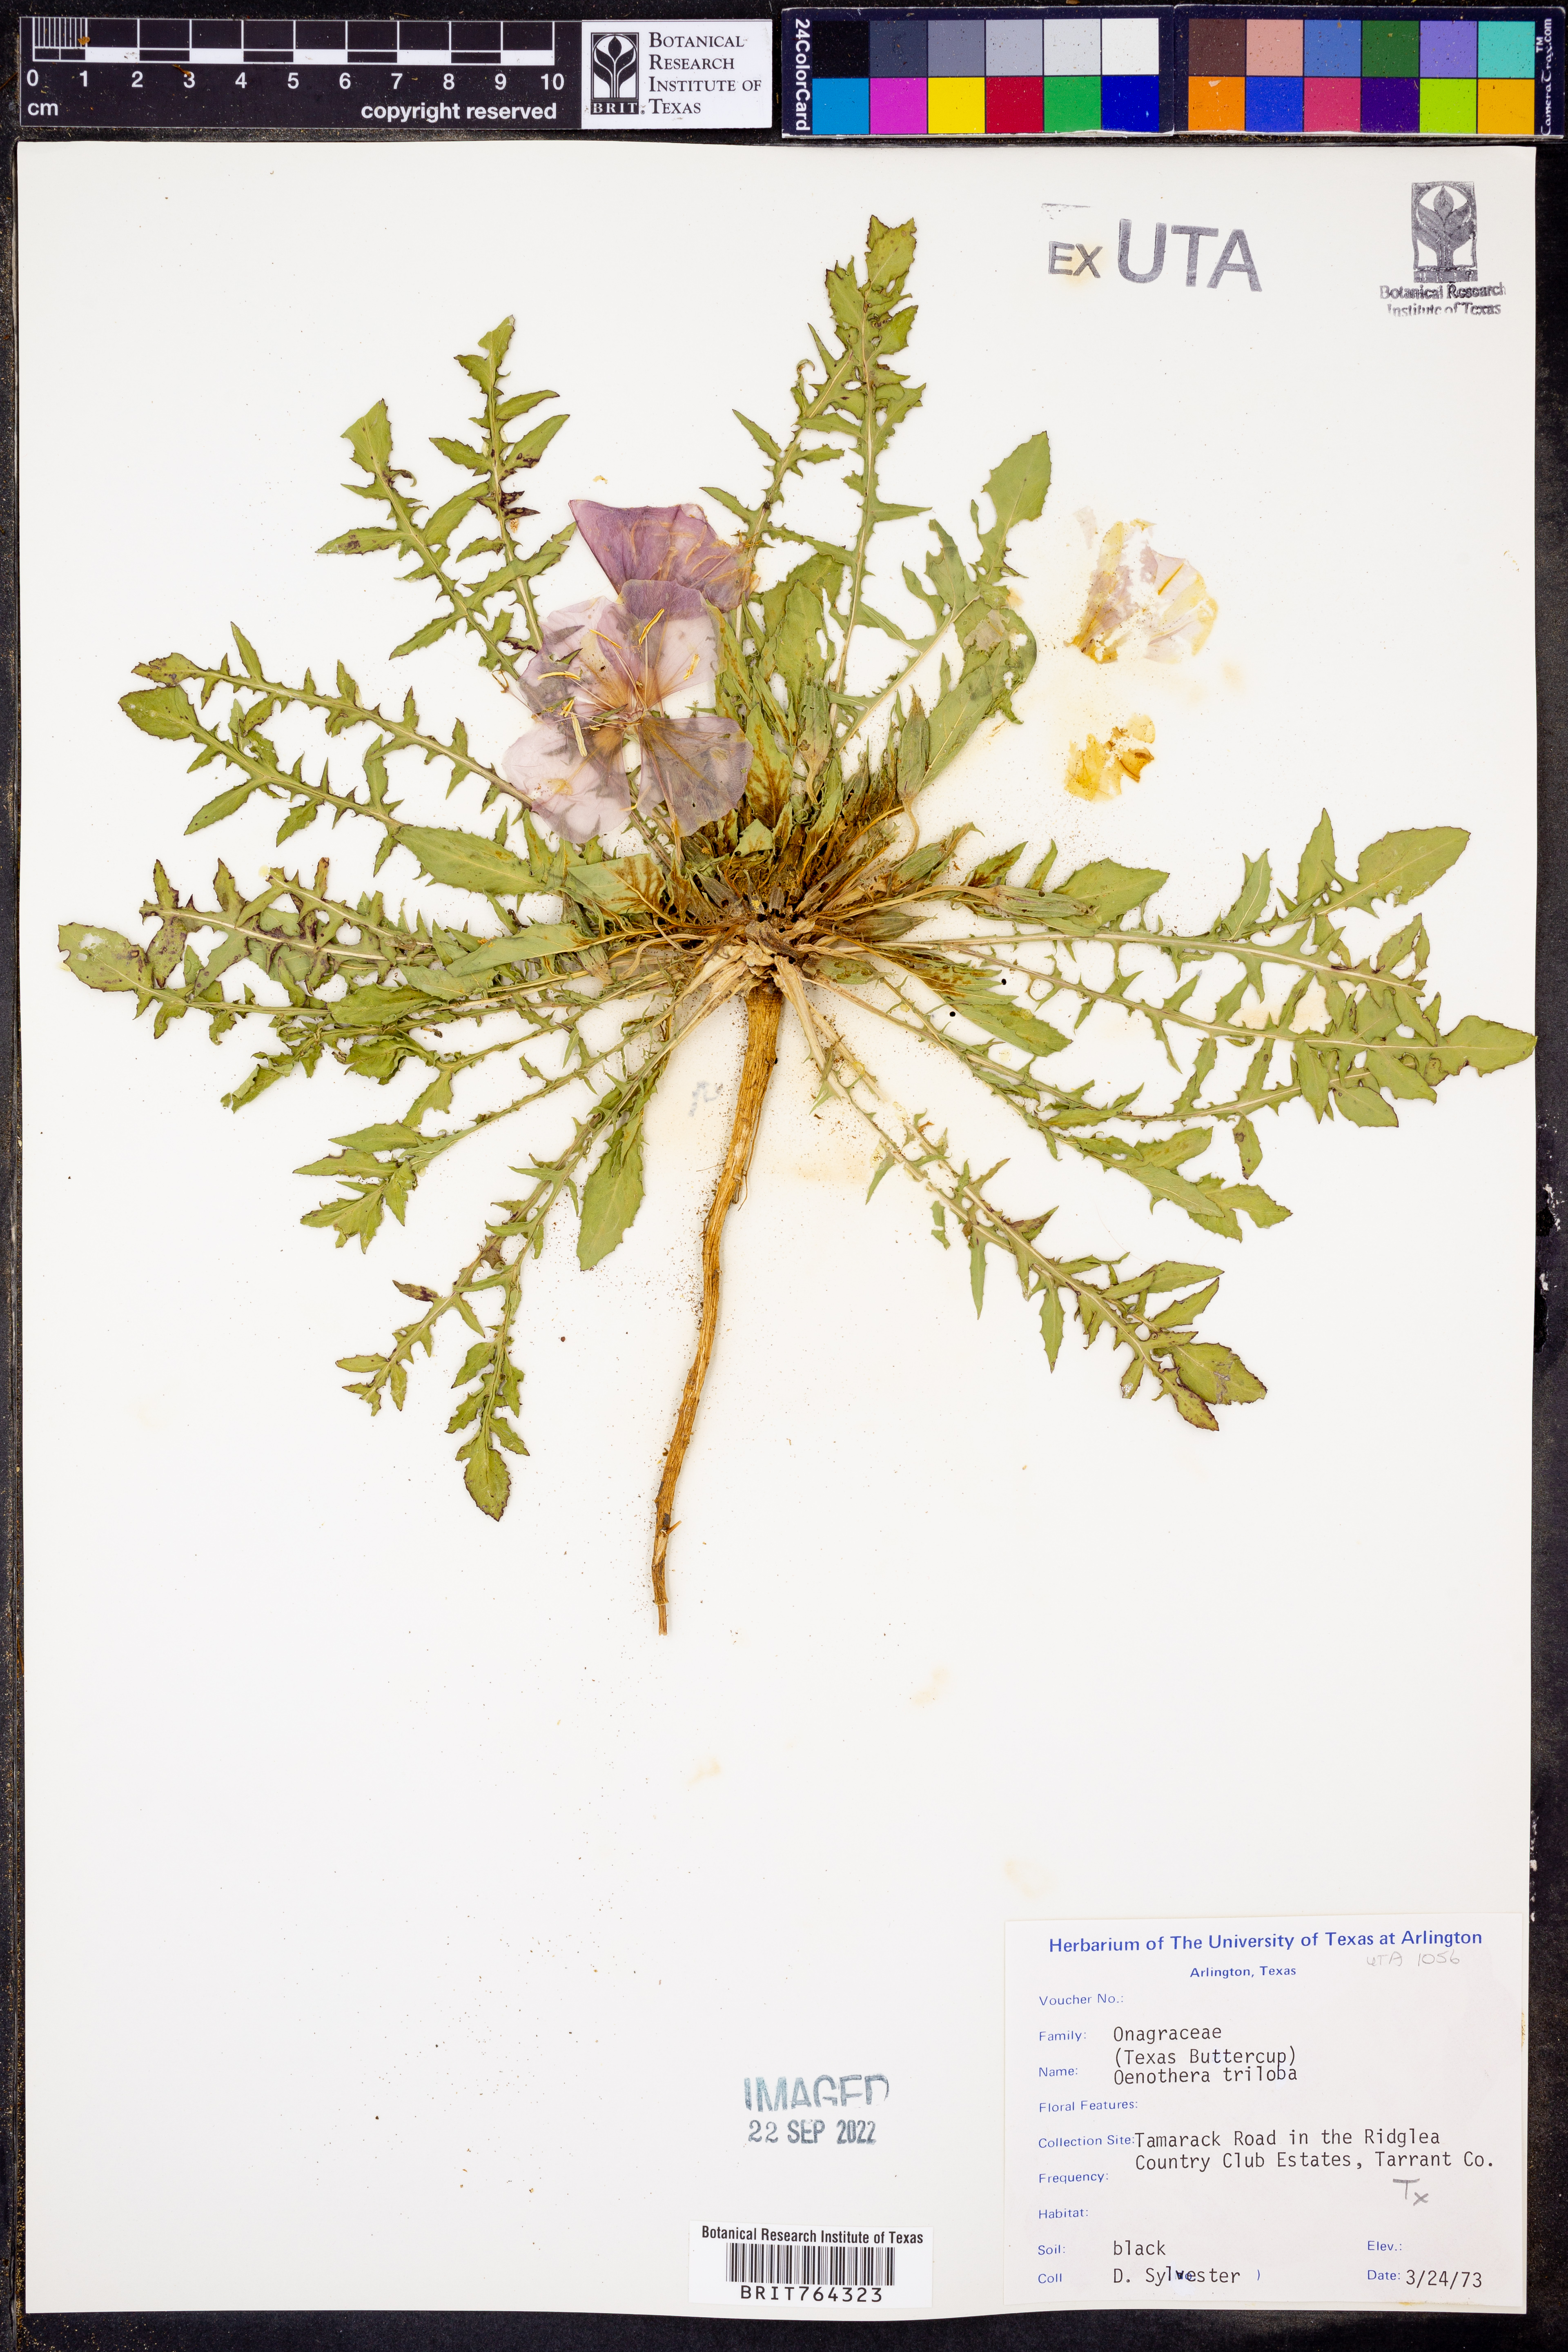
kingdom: Plantae
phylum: Tracheophyta
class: Magnoliopsida
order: Myrtales
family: Onagraceae
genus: Oenothera
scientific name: Oenothera triloba
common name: Sessile evening-primrose
